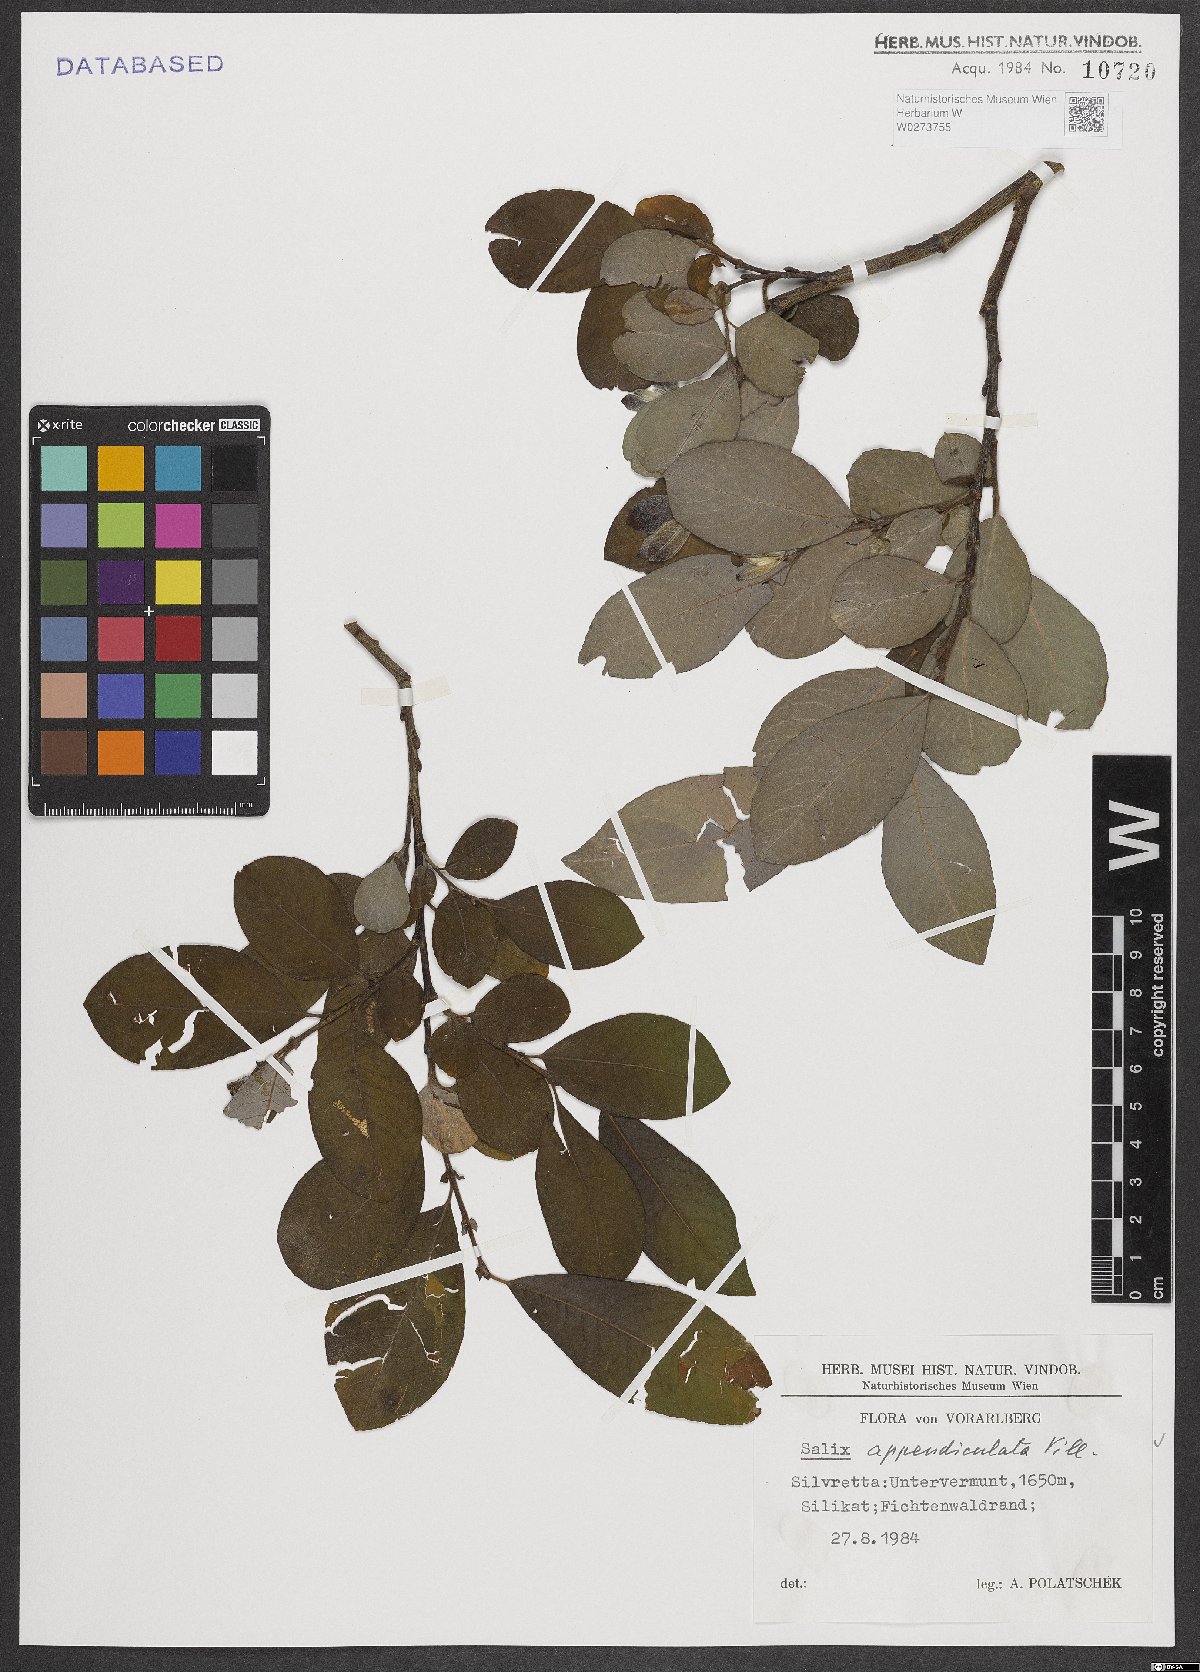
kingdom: Plantae
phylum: Tracheophyta
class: Magnoliopsida
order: Malpighiales
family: Salicaceae
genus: Salix
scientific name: Salix appendiculata
